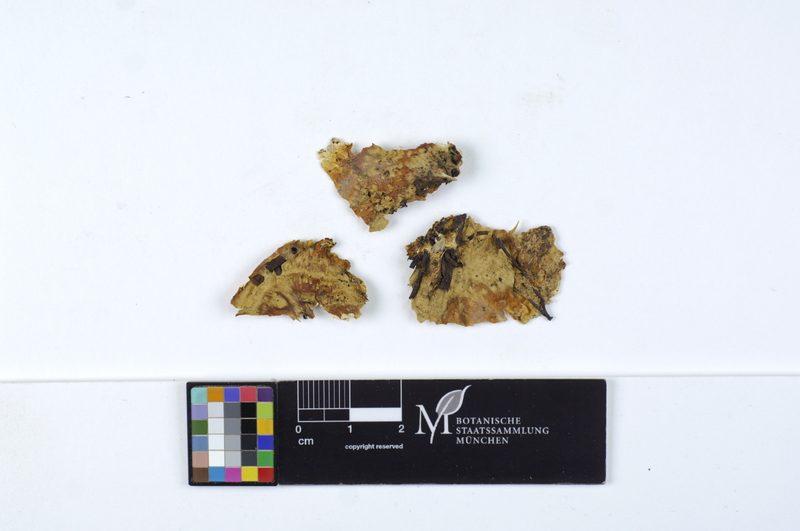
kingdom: Fungi
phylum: Basidiomycota
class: Agaricomycetes
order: Cantharellales
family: Hydnaceae
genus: Sistotrema
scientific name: Sistotrema brinkmannii
